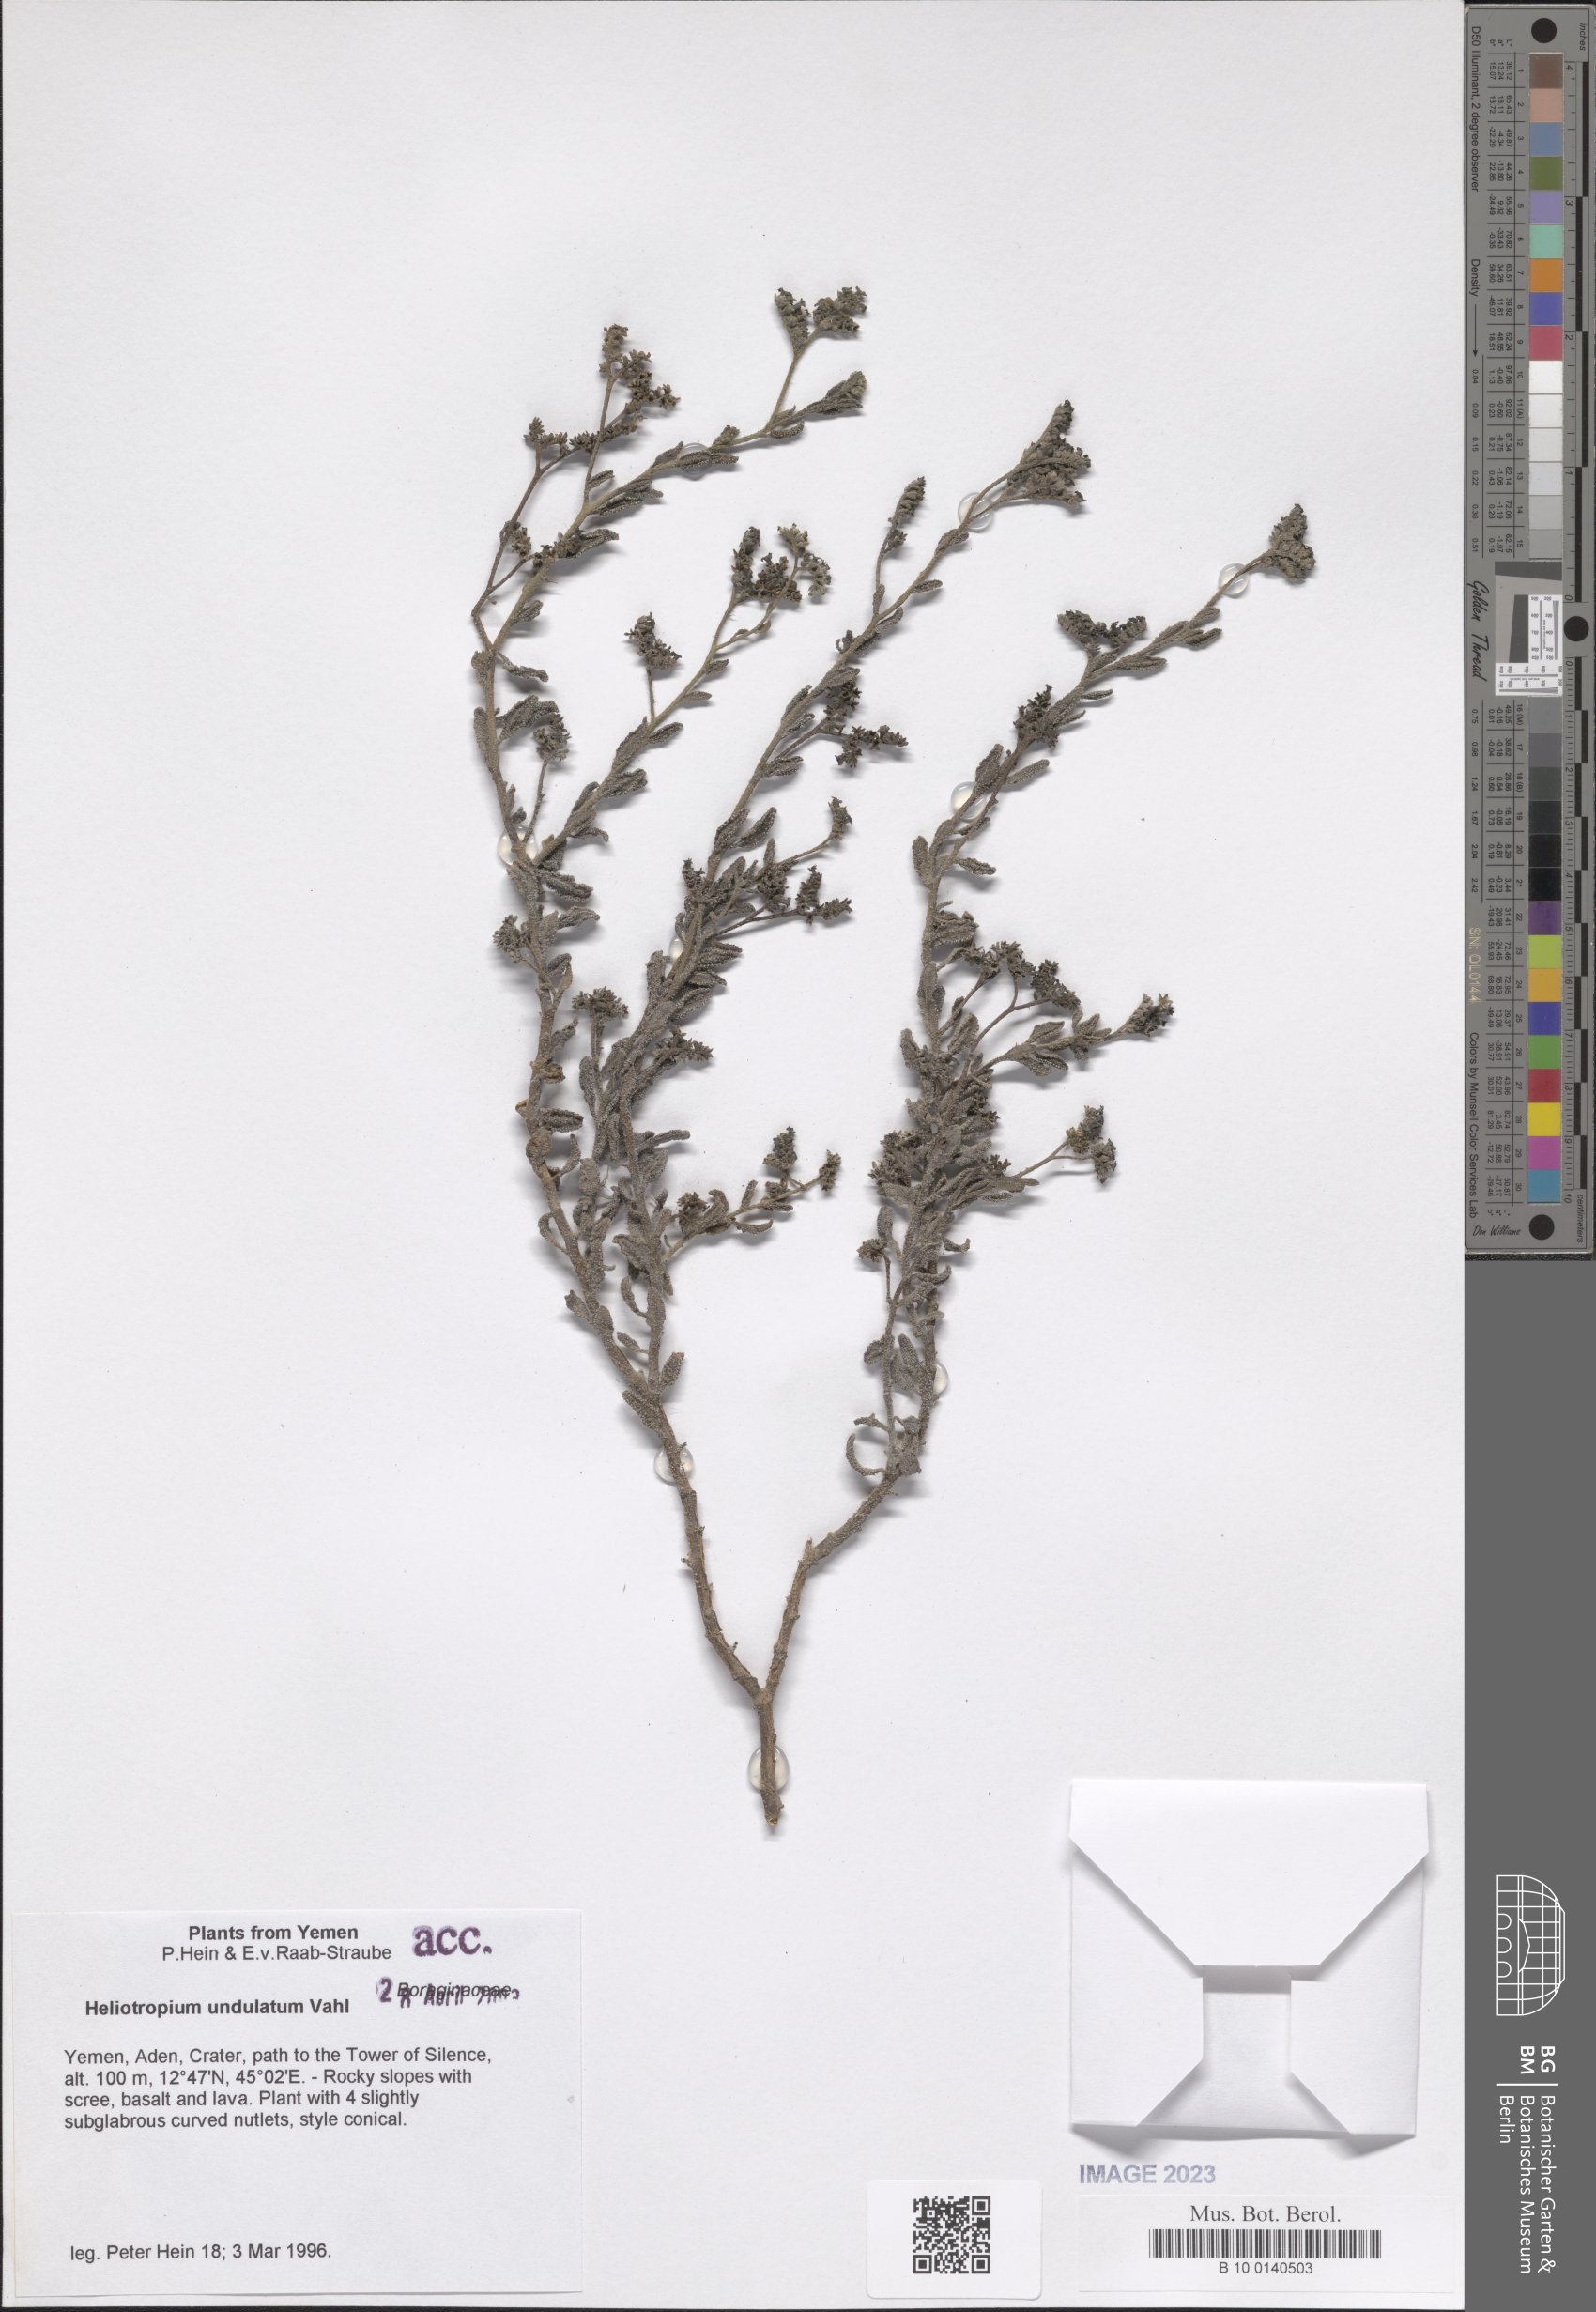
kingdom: Plantae
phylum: Tracheophyta
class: Magnoliopsida
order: Boraginales
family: Heliotropiaceae
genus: Heliotropium
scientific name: Heliotropium bacciferum
